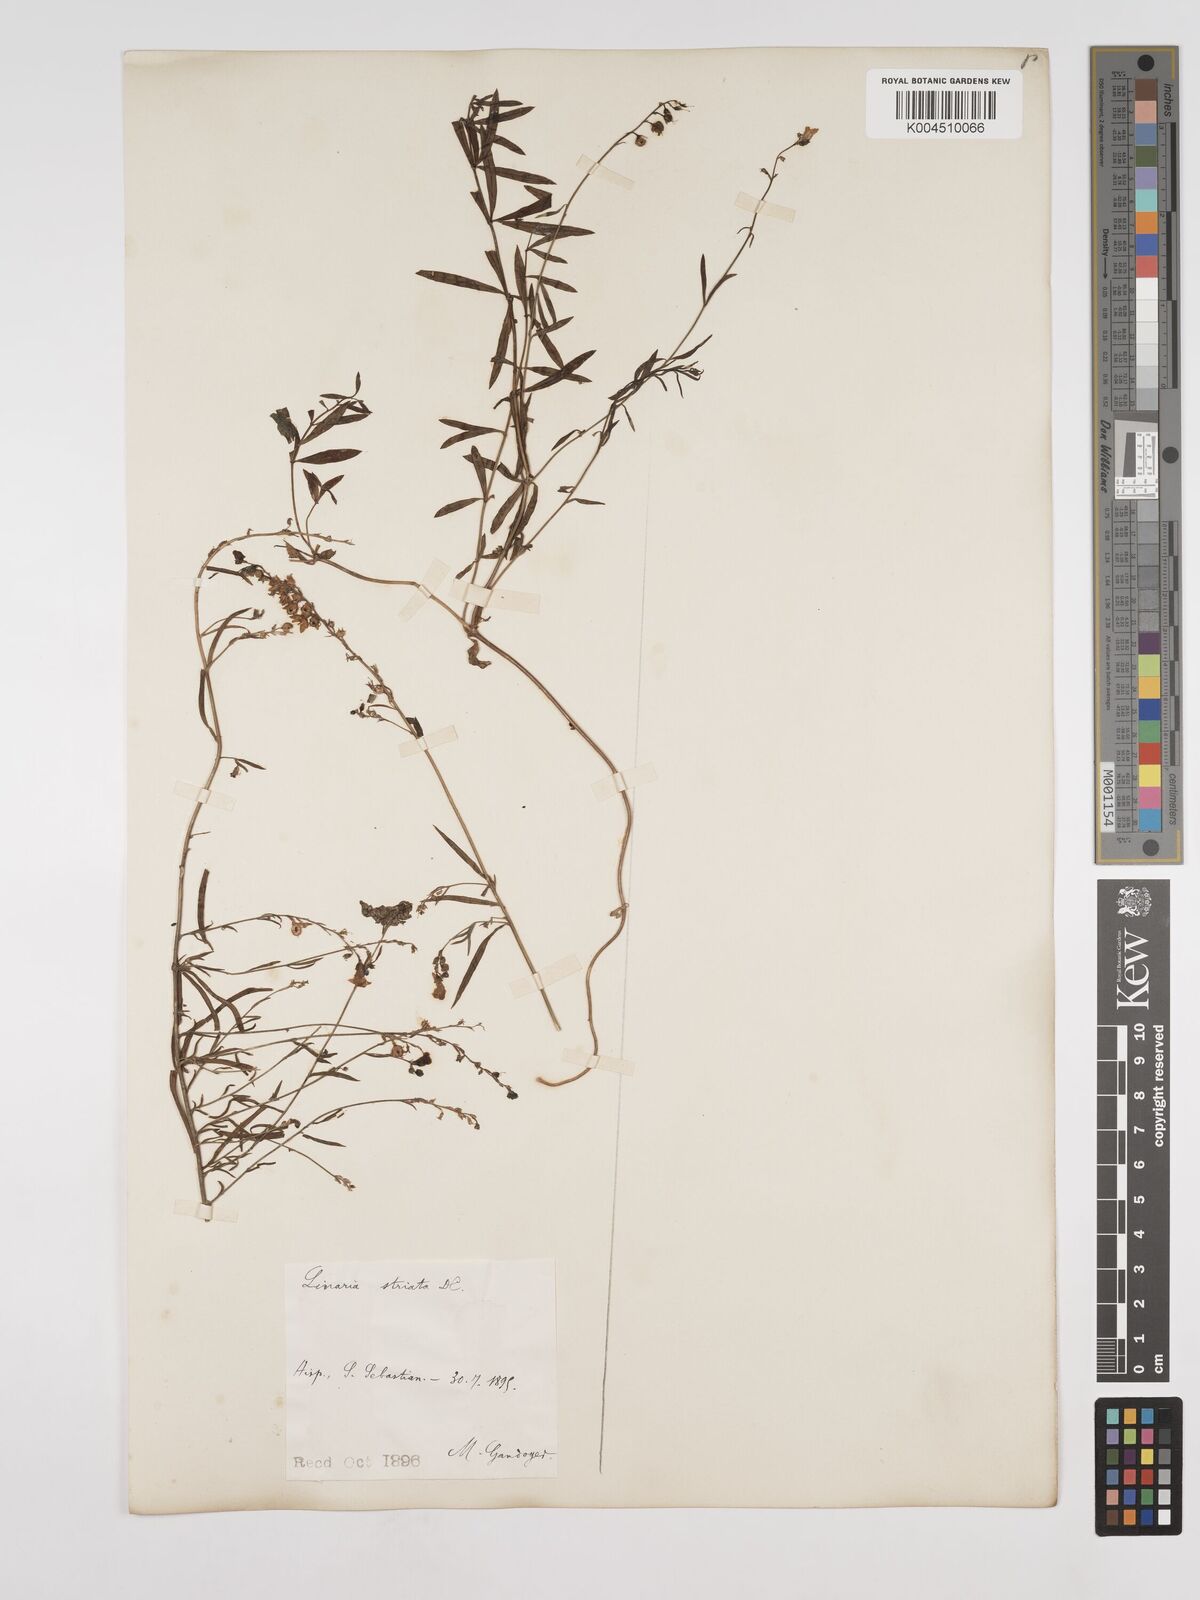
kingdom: Plantae
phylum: Tracheophyta
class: Magnoliopsida
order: Lamiales
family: Plantaginaceae
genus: Linaria
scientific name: Linaria
